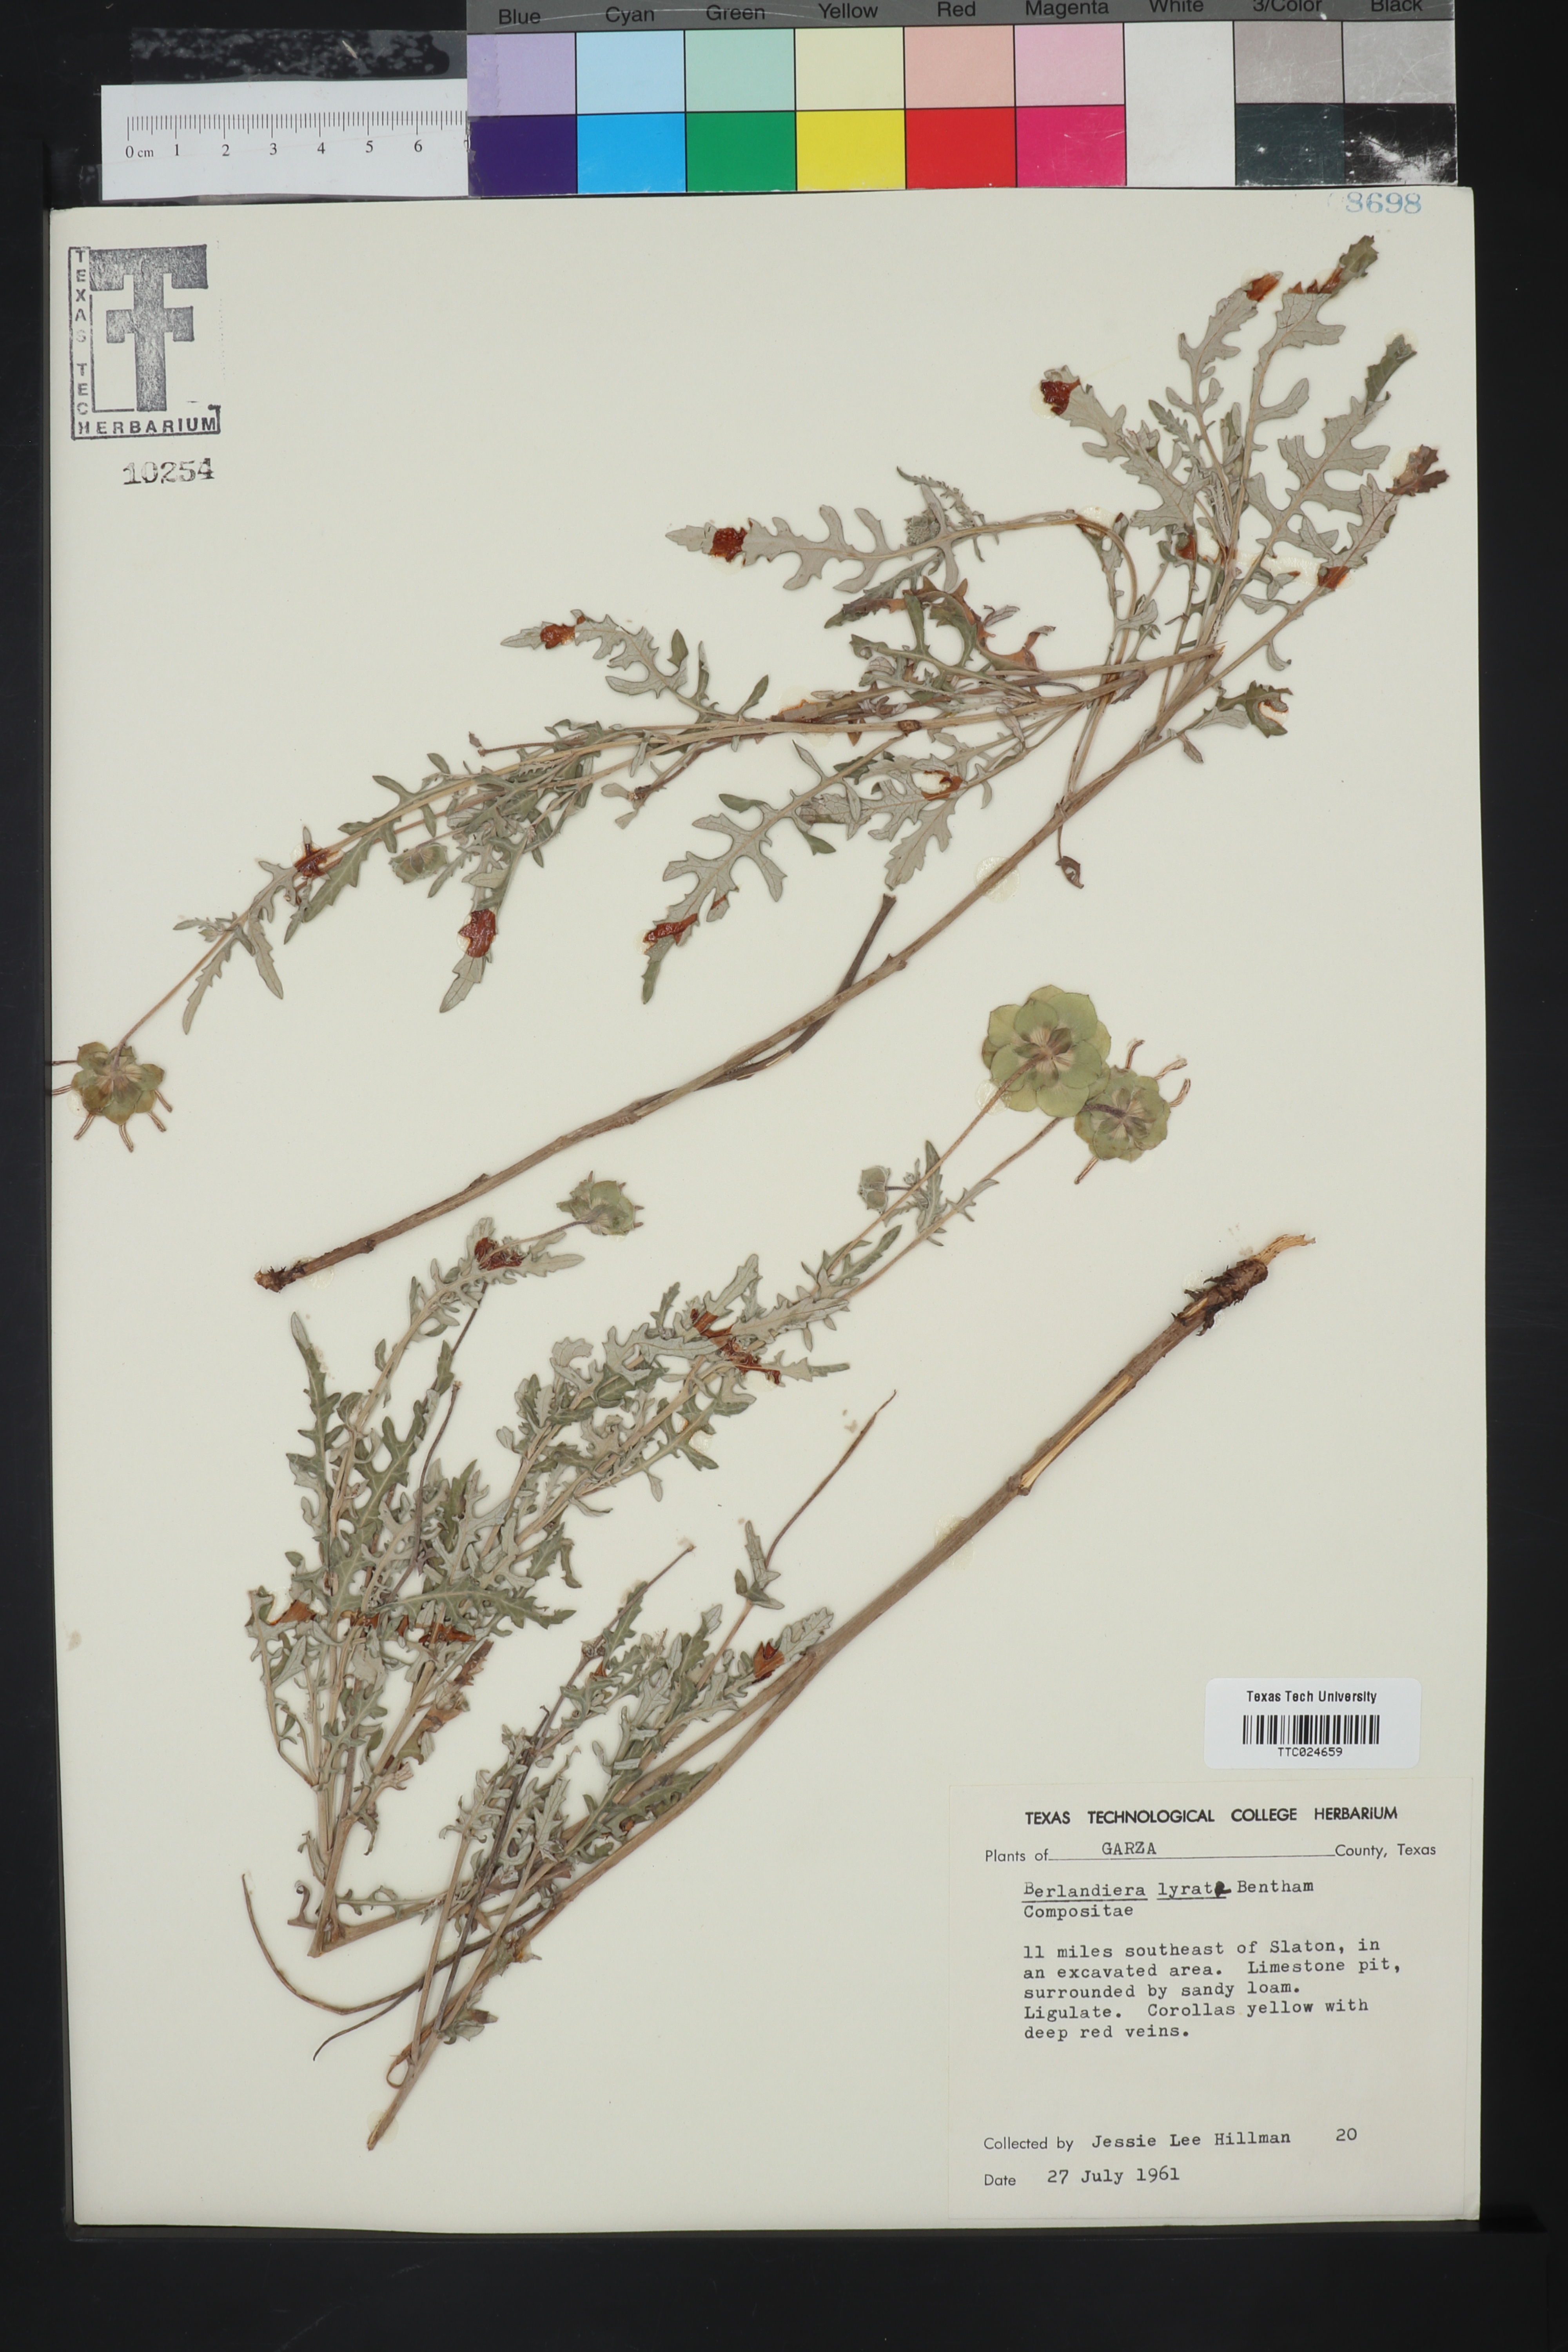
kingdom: Plantae
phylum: Tracheophyta
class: Magnoliopsida
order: Asterales
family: Asteraceae
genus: Berlandiera
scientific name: Berlandiera lyrata
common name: Chocolate-flower
